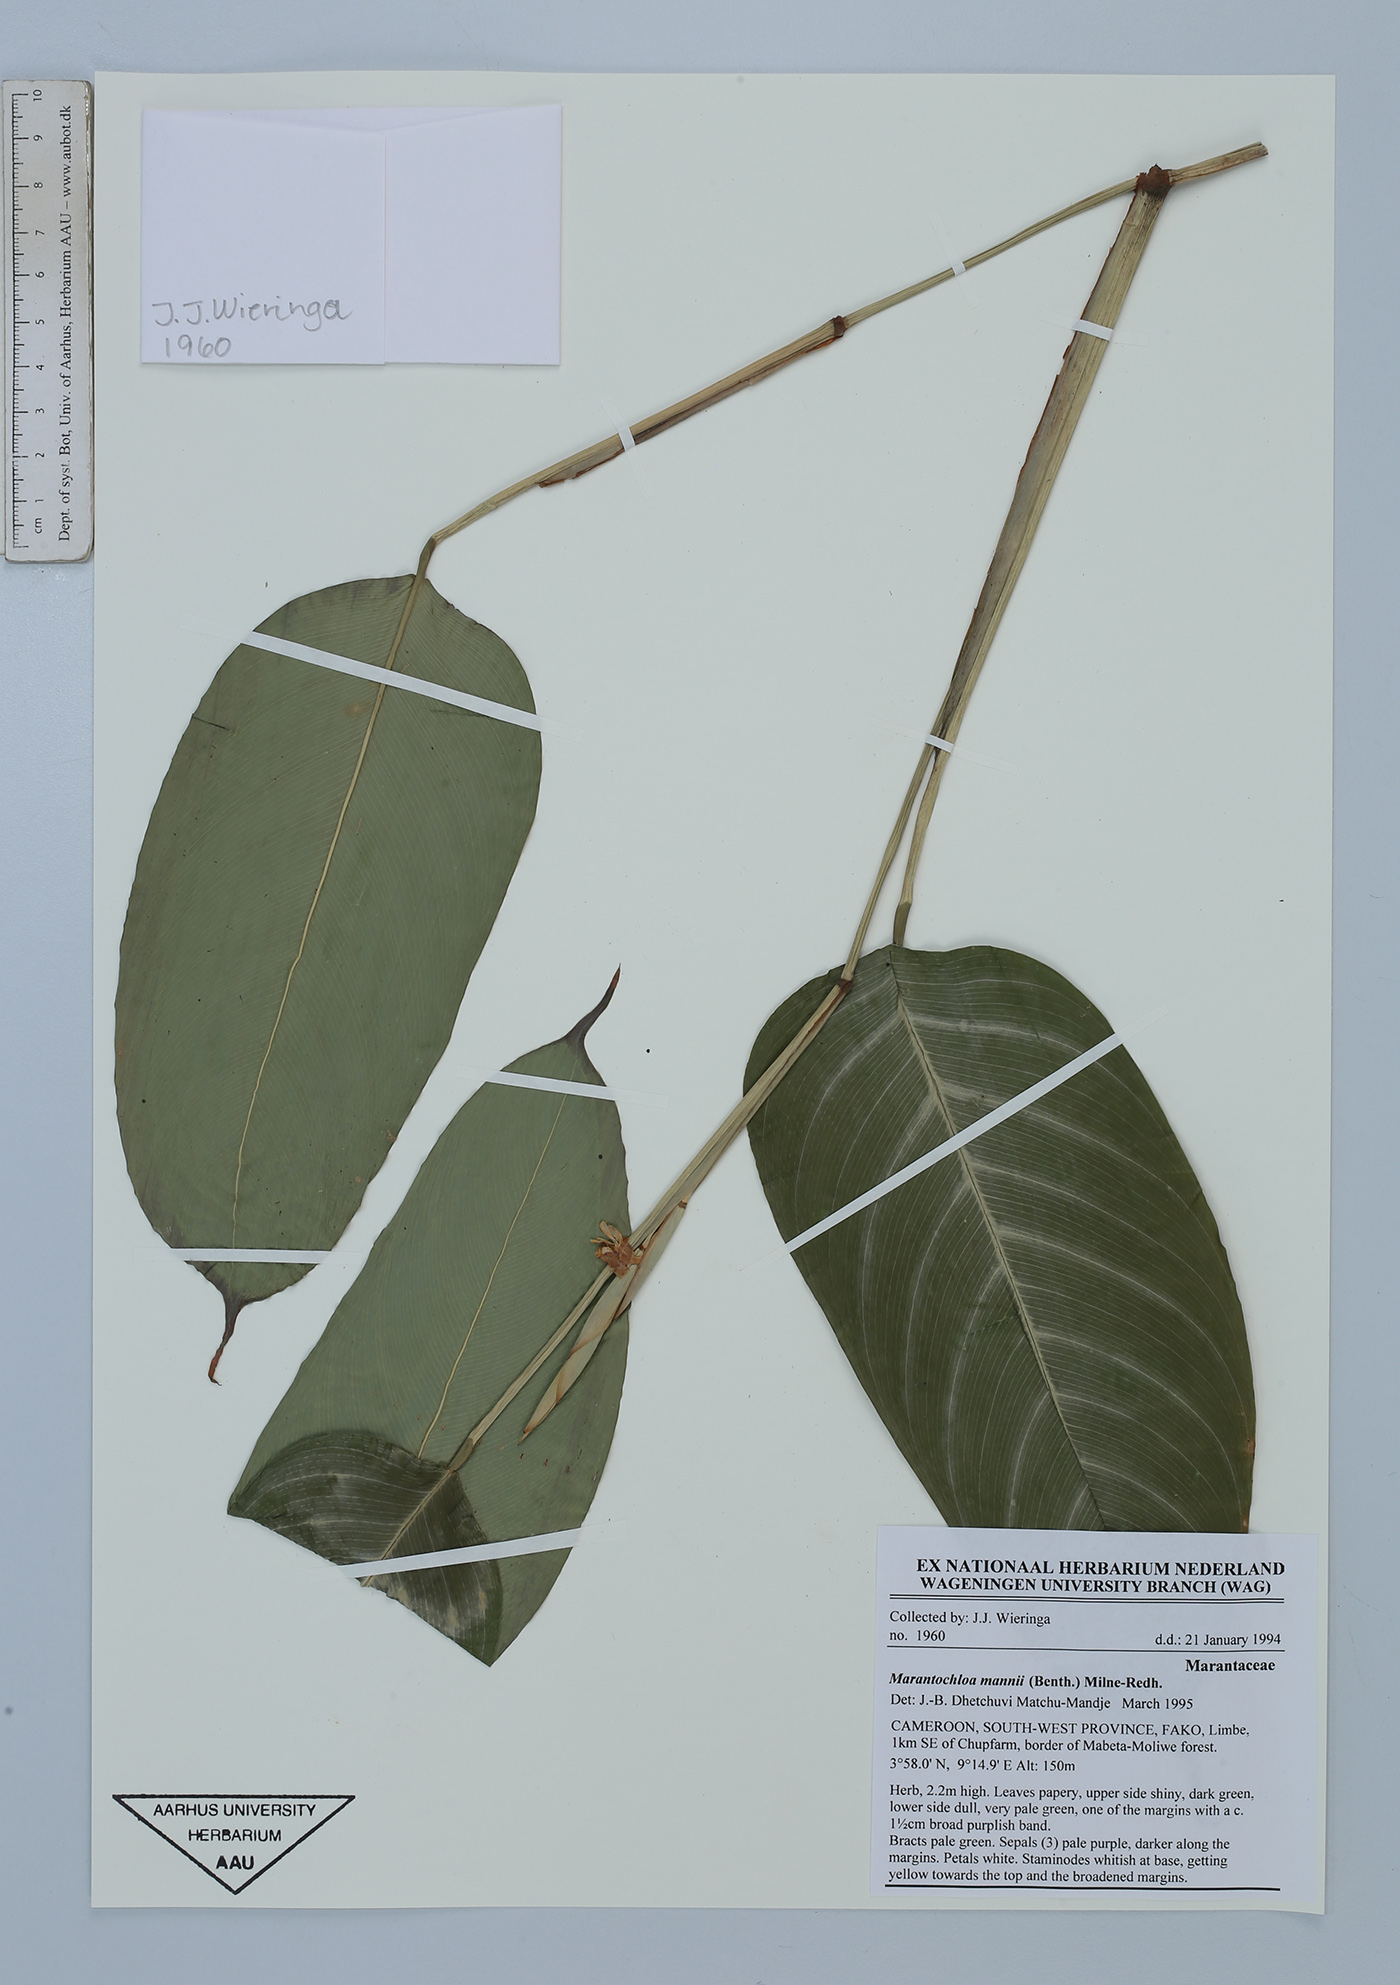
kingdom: Plantae
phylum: Tracheophyta
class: Liliopsida
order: Zingiberales
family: Marantaceae
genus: Marantochloa
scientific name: Marantochloa mannii
